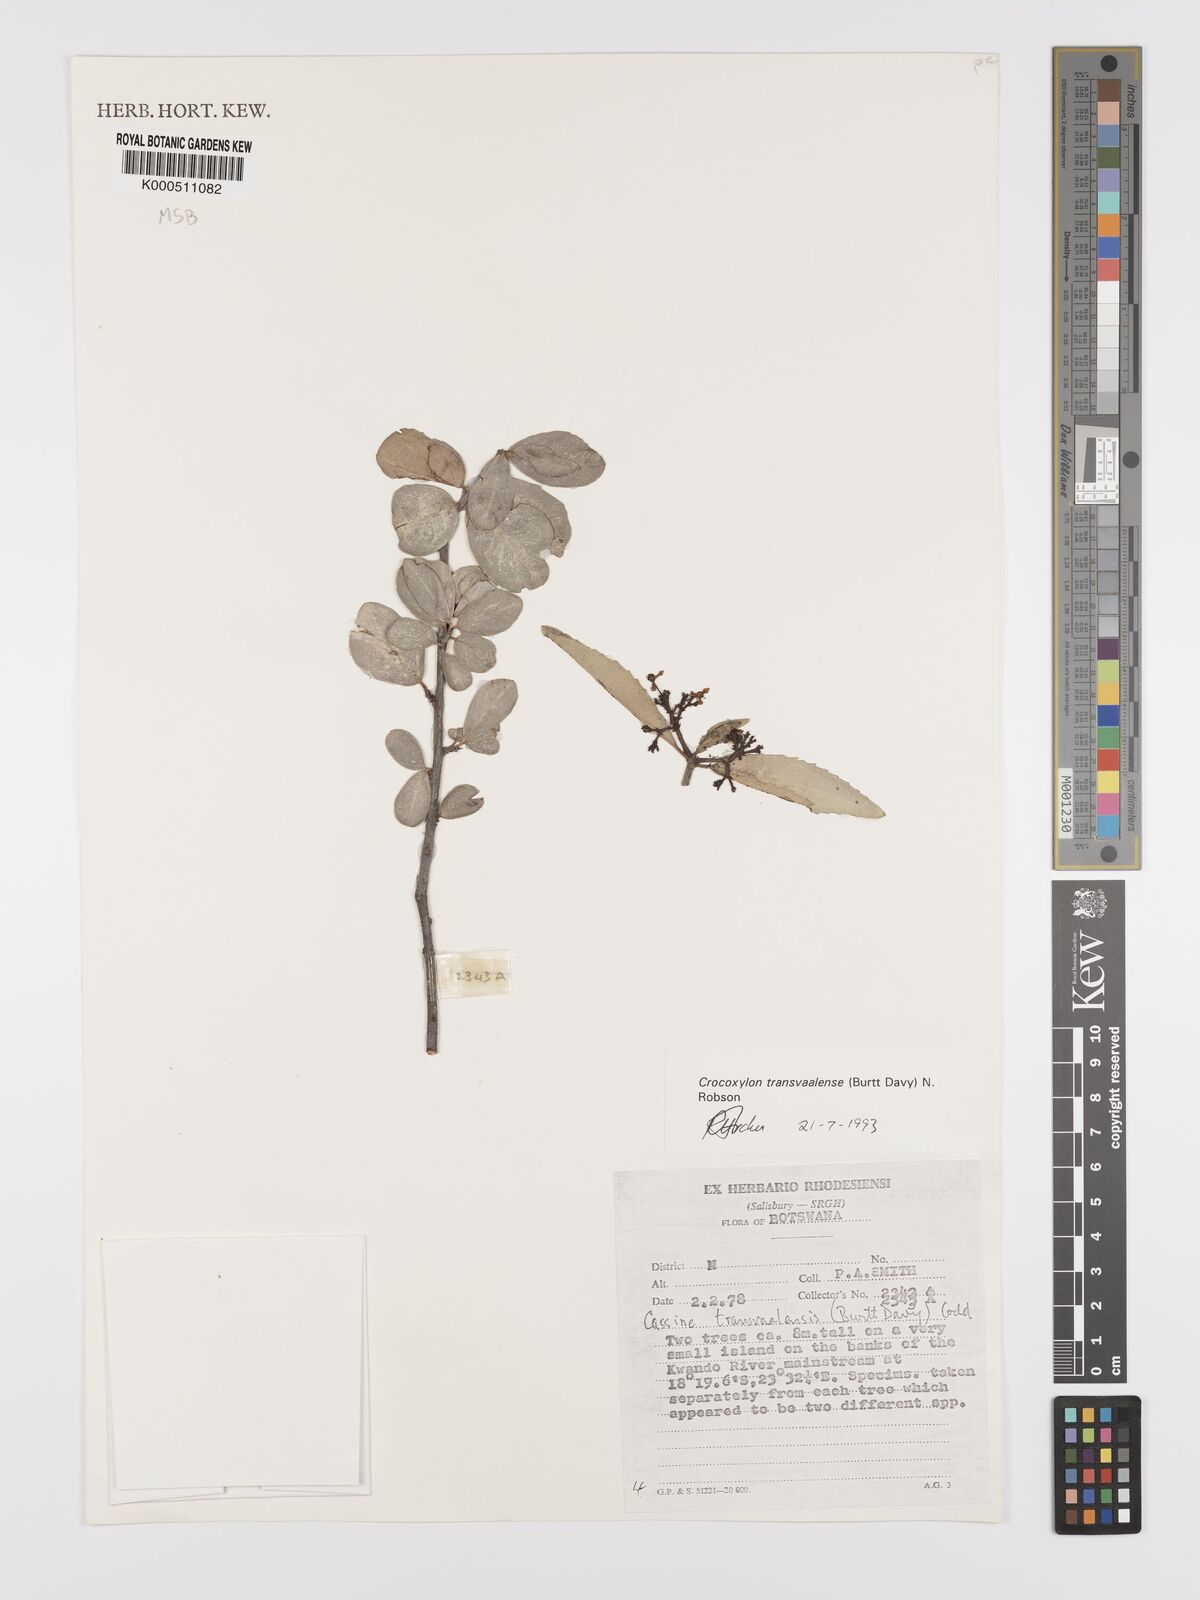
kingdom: Plantae
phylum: Tracheophyta
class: Magnoliopsida
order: Celastrales
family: Celastraceae
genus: Elaeodendron
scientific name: Elaeodendron transvaalense
